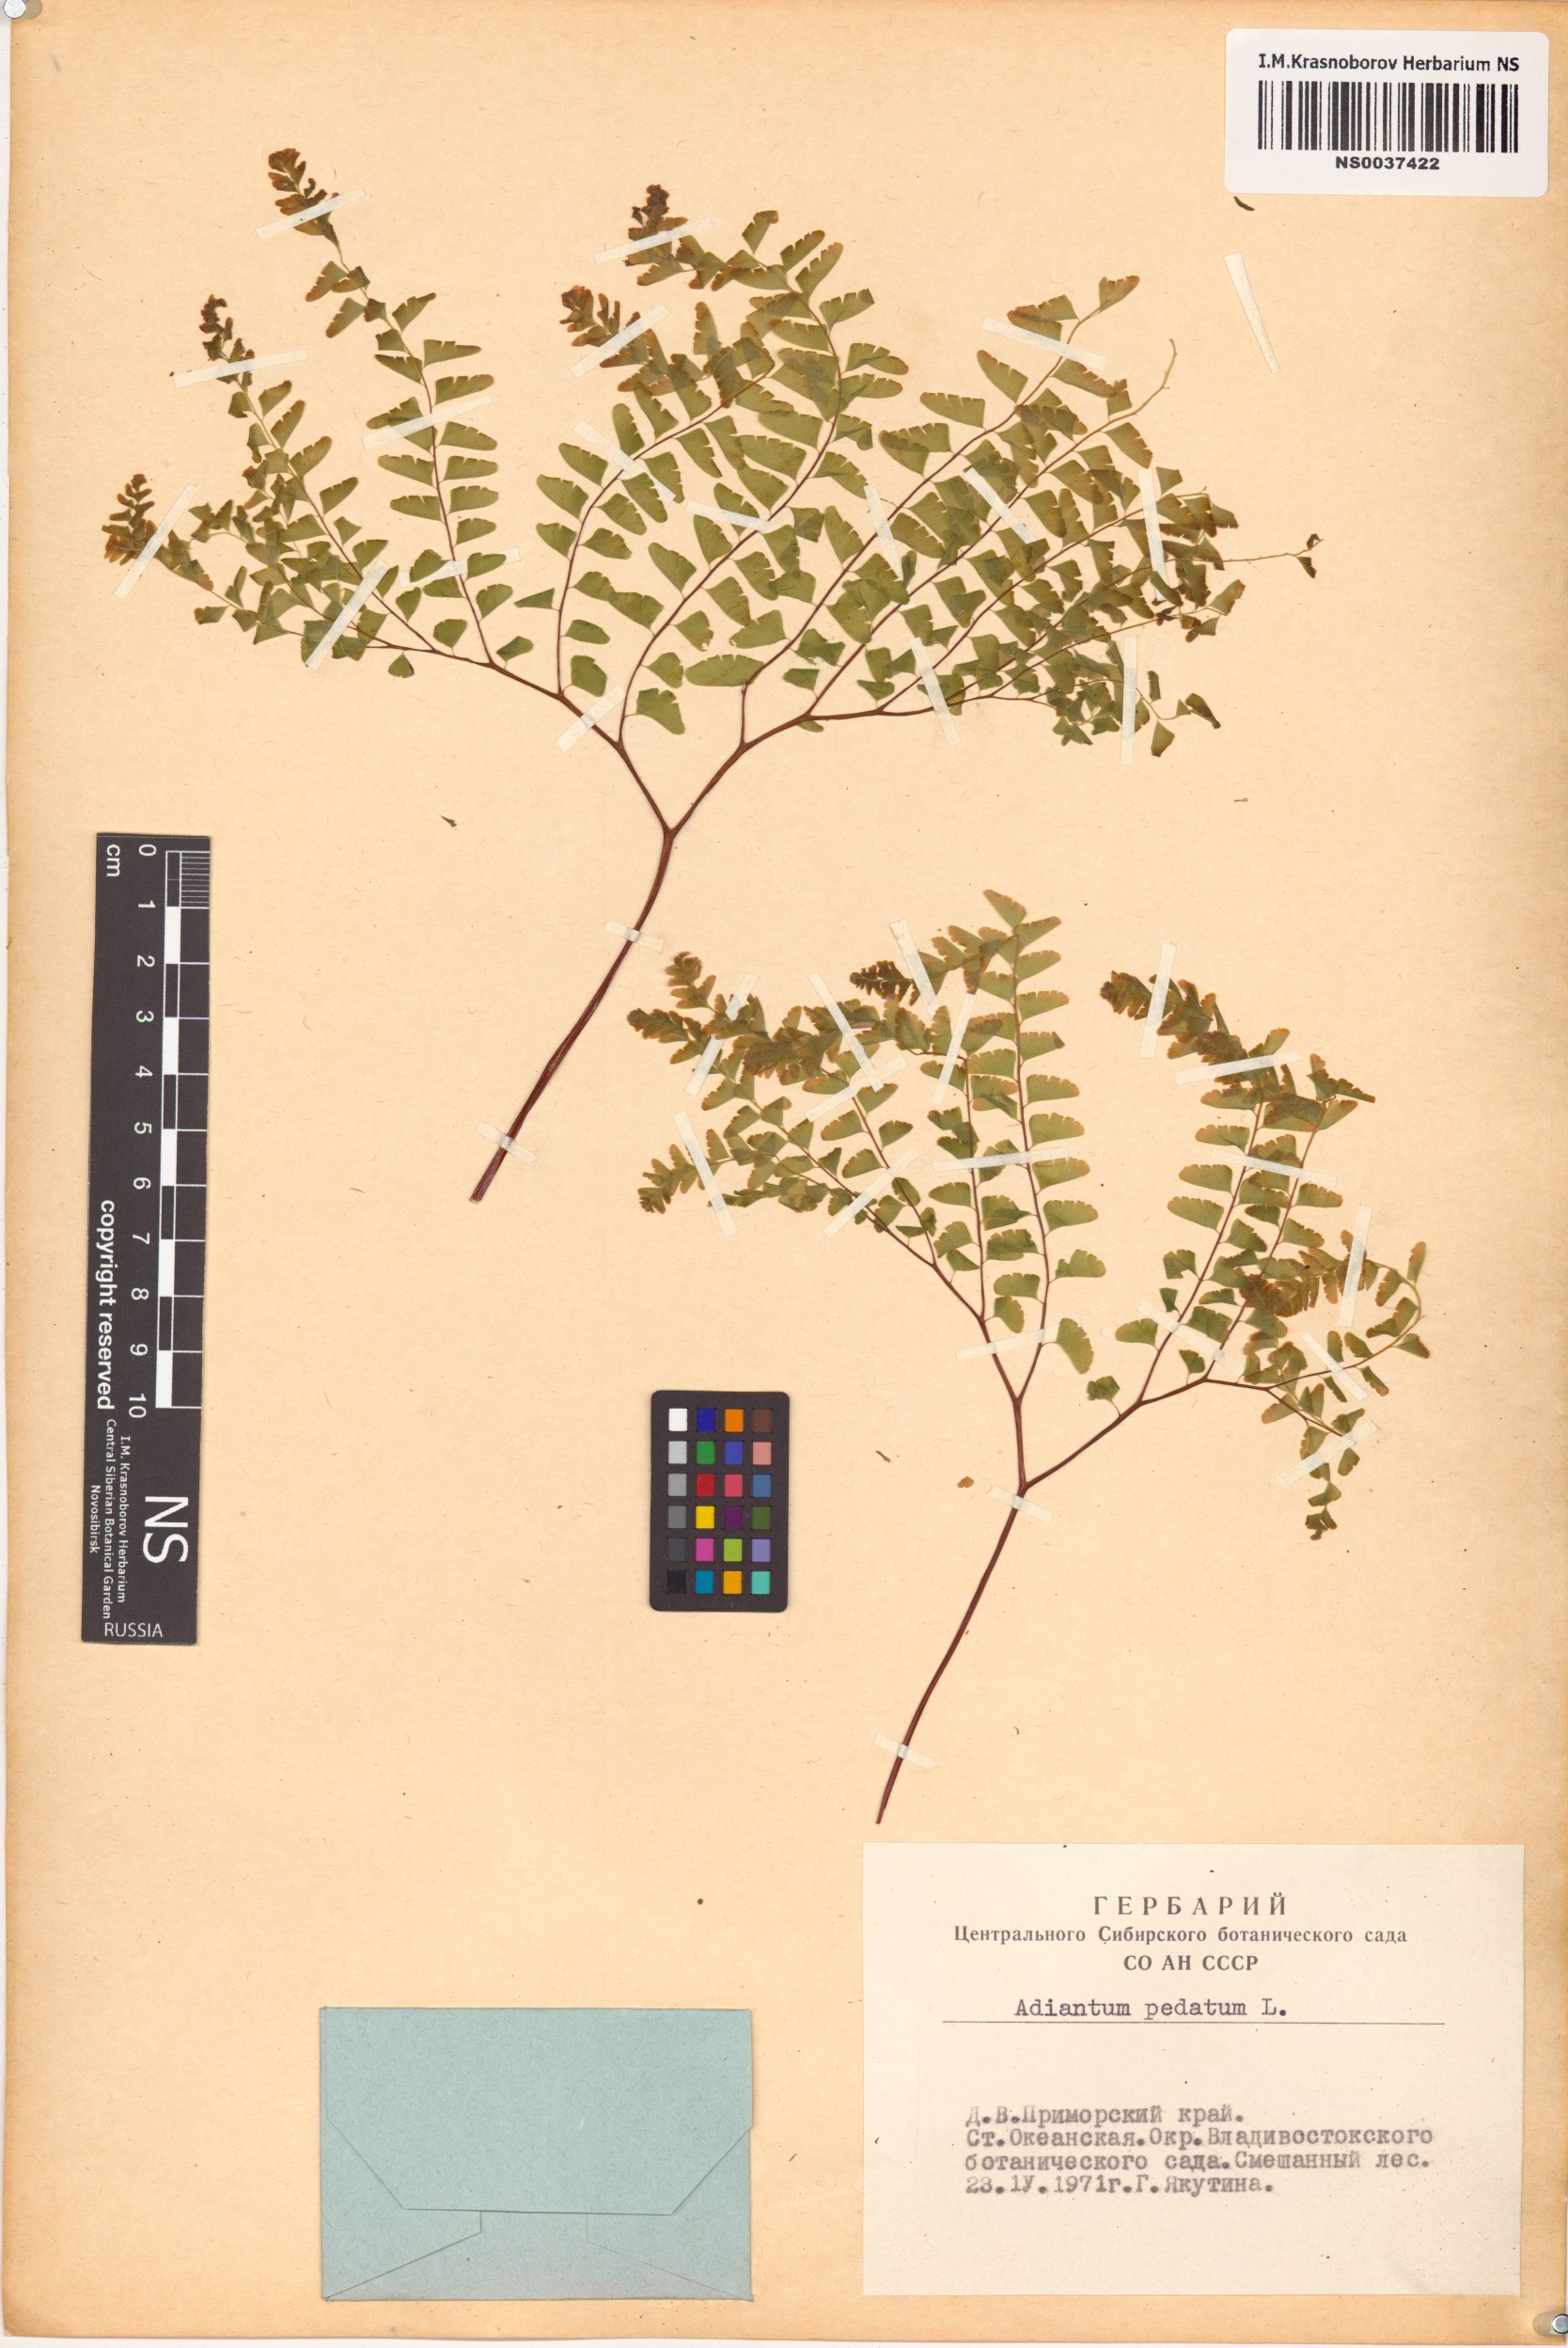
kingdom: Plantae
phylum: Tracheophyta
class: Polypodiopsida
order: Polypodiales
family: Pteridaceae
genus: Adiantum
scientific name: Adiantum pedatum
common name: Five-finger fern
